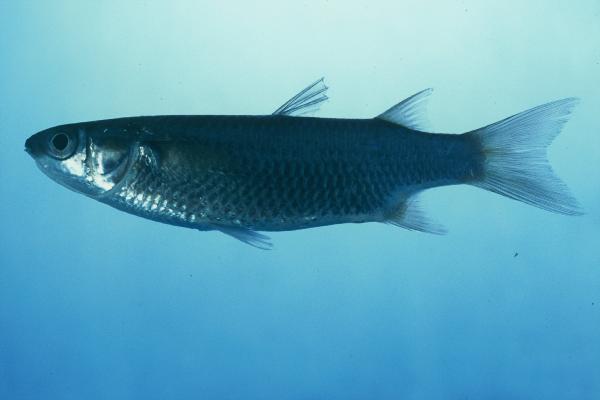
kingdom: Animalia
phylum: Chordata
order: Mugiliformes
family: Mugilidae
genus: Planiliza
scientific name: Planiliza macrolepis
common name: Largescale mullet
